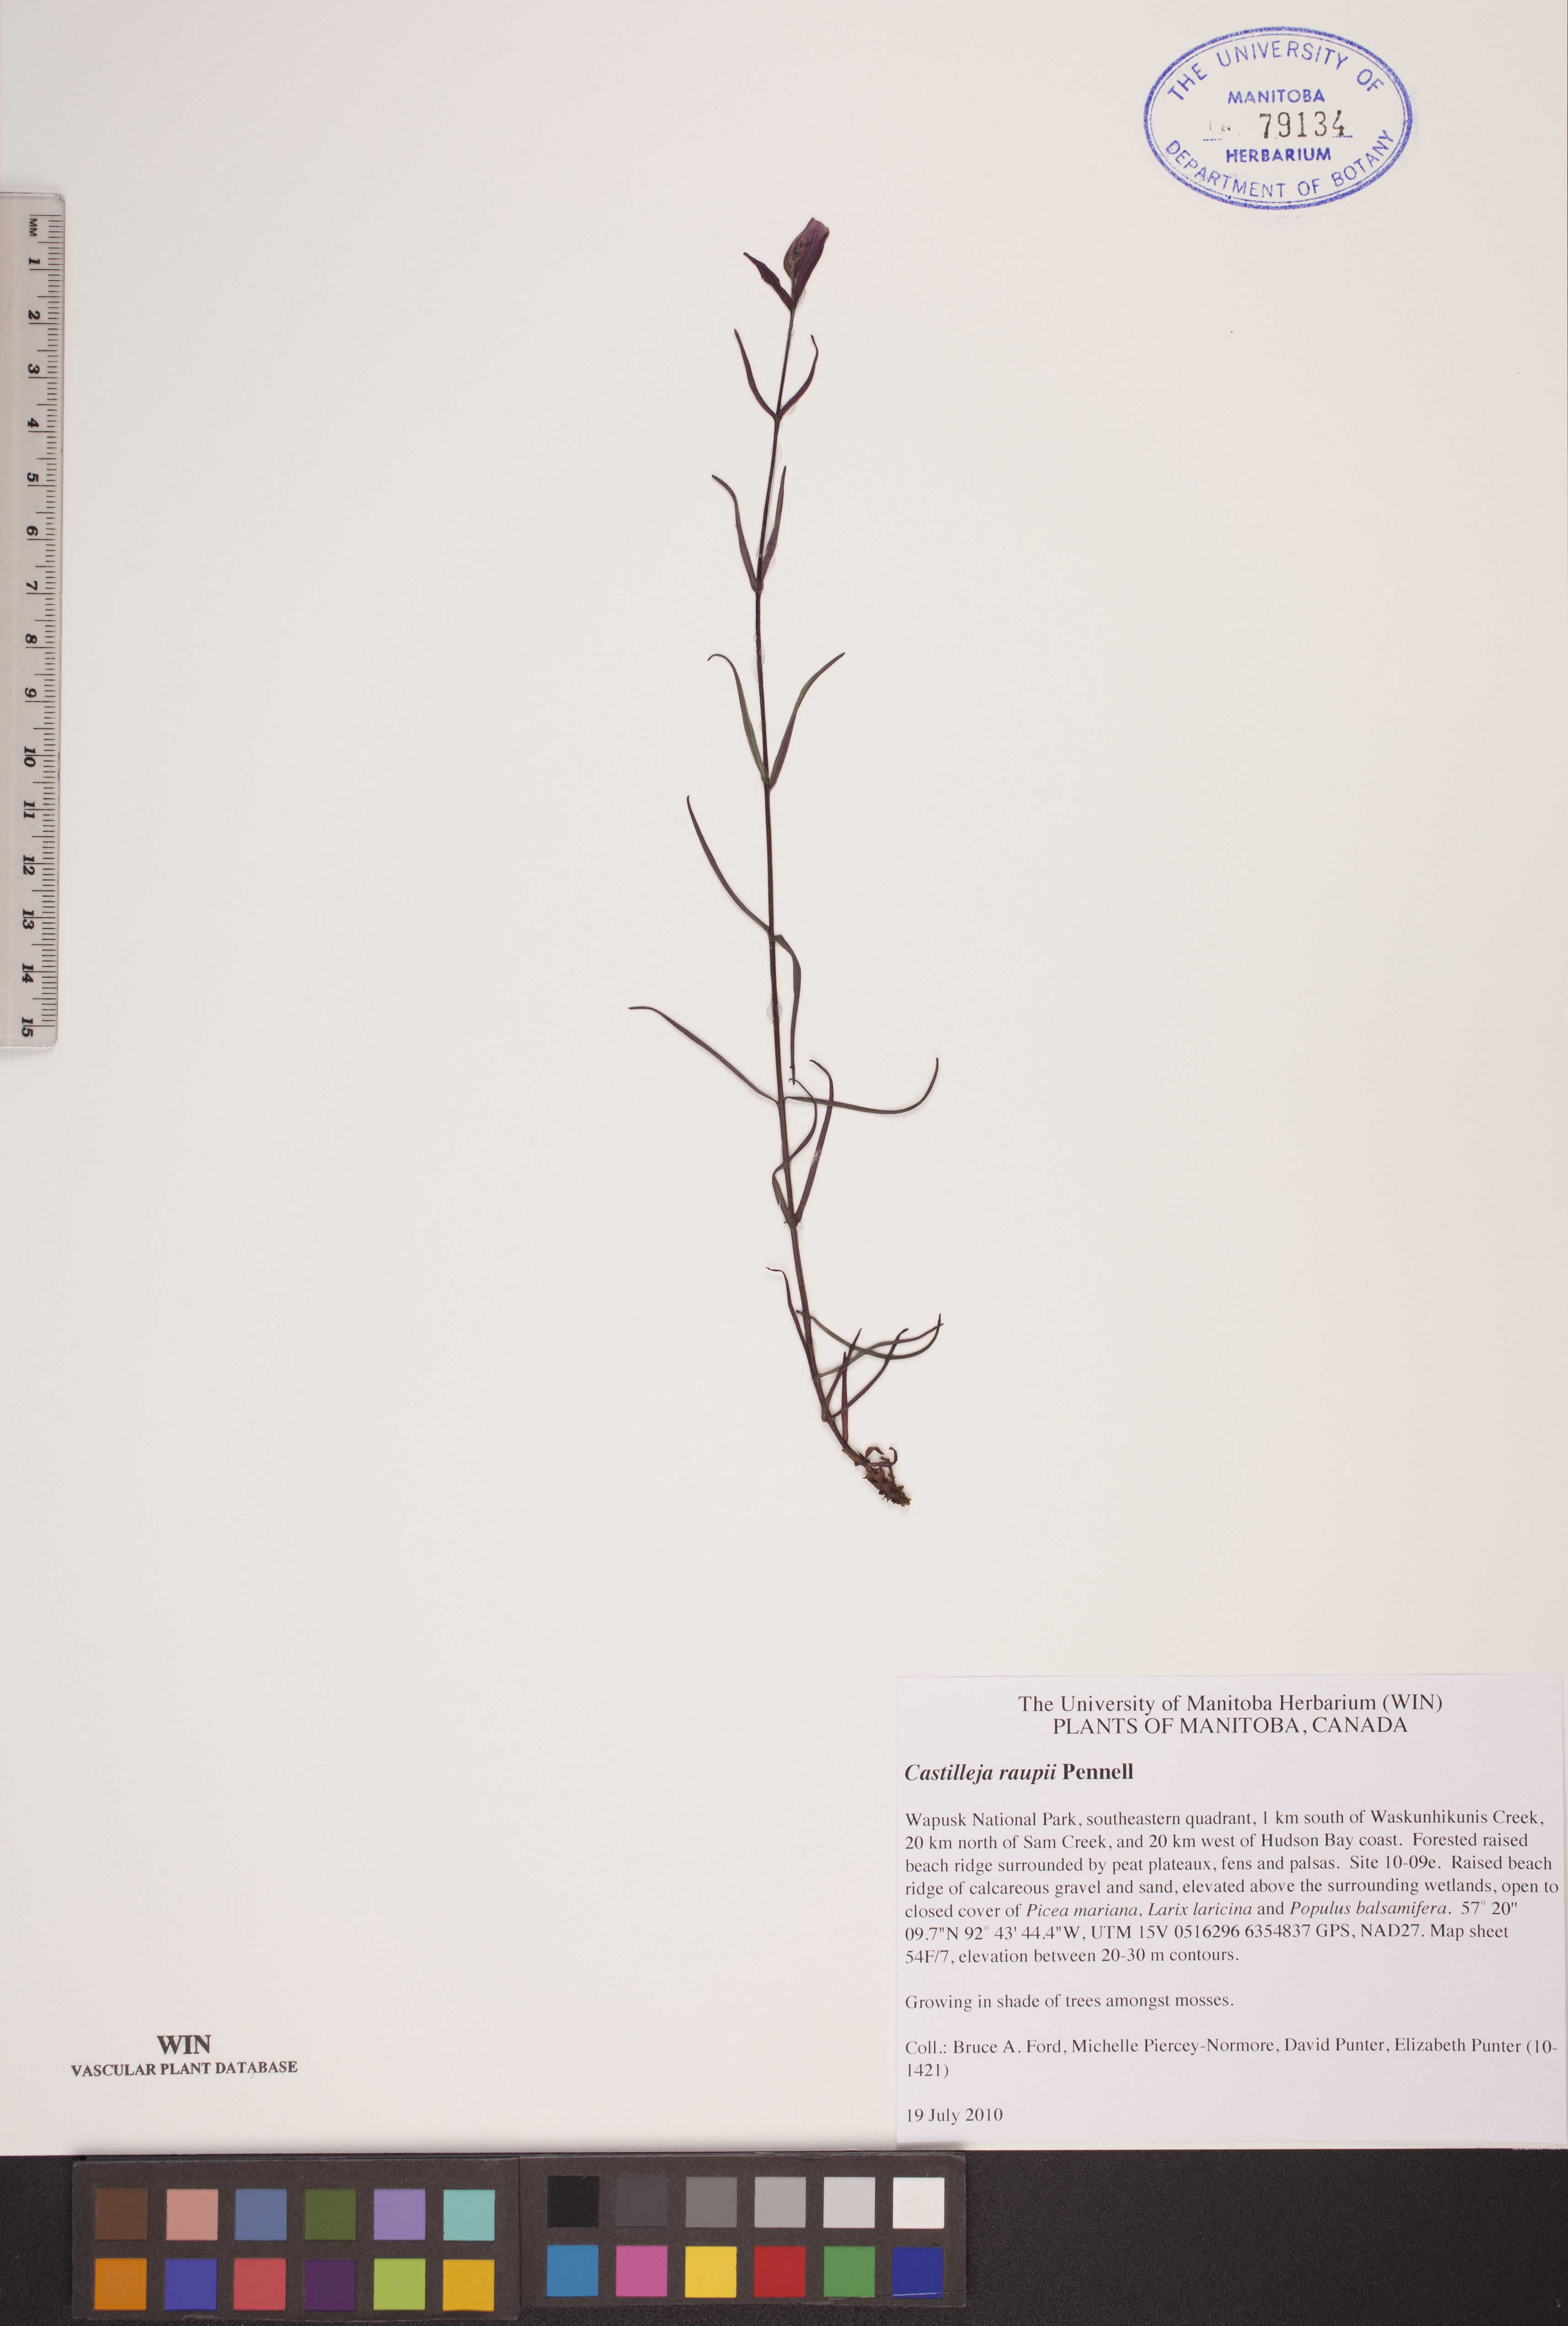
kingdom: Plantae
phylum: Tracheophyta
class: Magnoliopsida
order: Lamiales
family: Orobanchaceae
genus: Castilleja
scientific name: Castilleja raupii
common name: Raup's paintbrush
